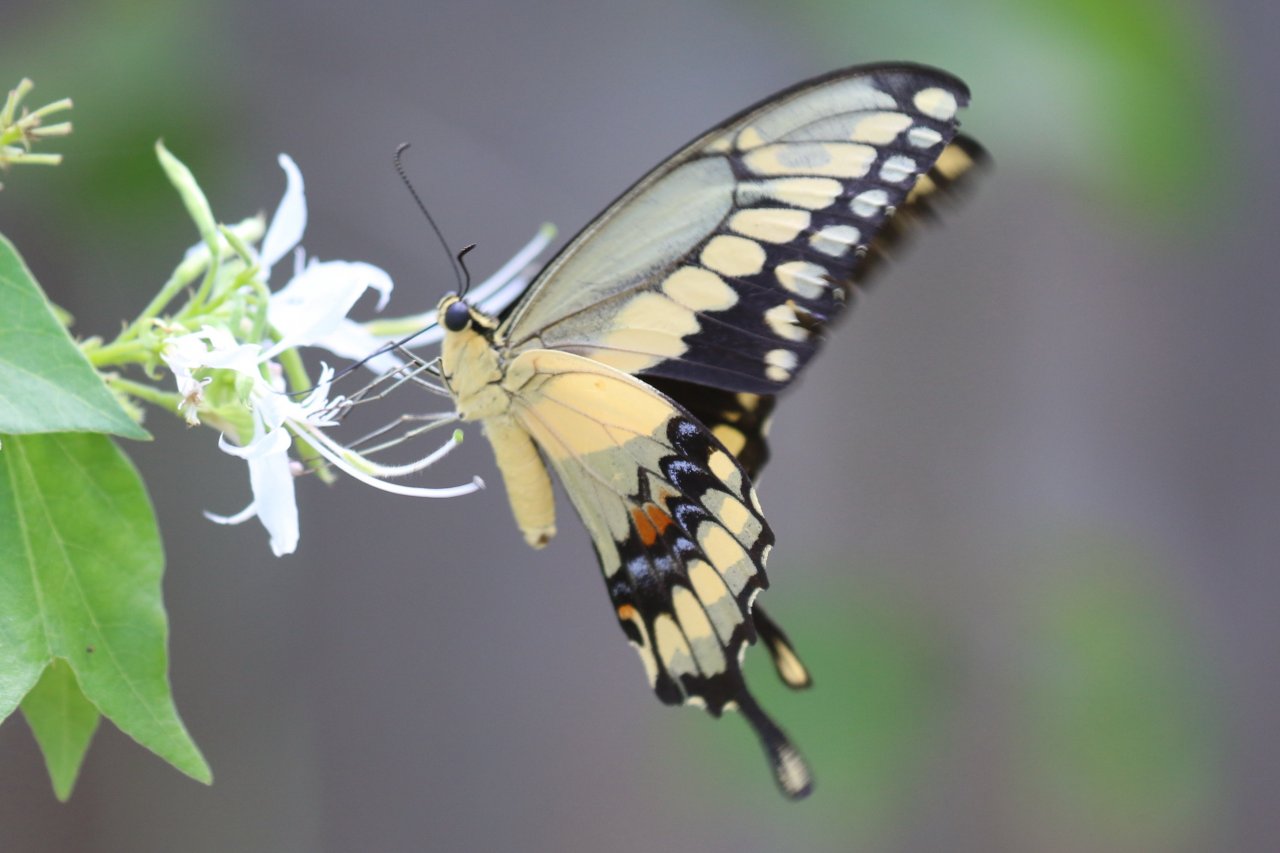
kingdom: Animalia
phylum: Arthropoda
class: Insecta
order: Lepidoptera
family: Papilionidae
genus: Papilio
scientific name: Papilio rumiko
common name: Western Giant Swallowtail
